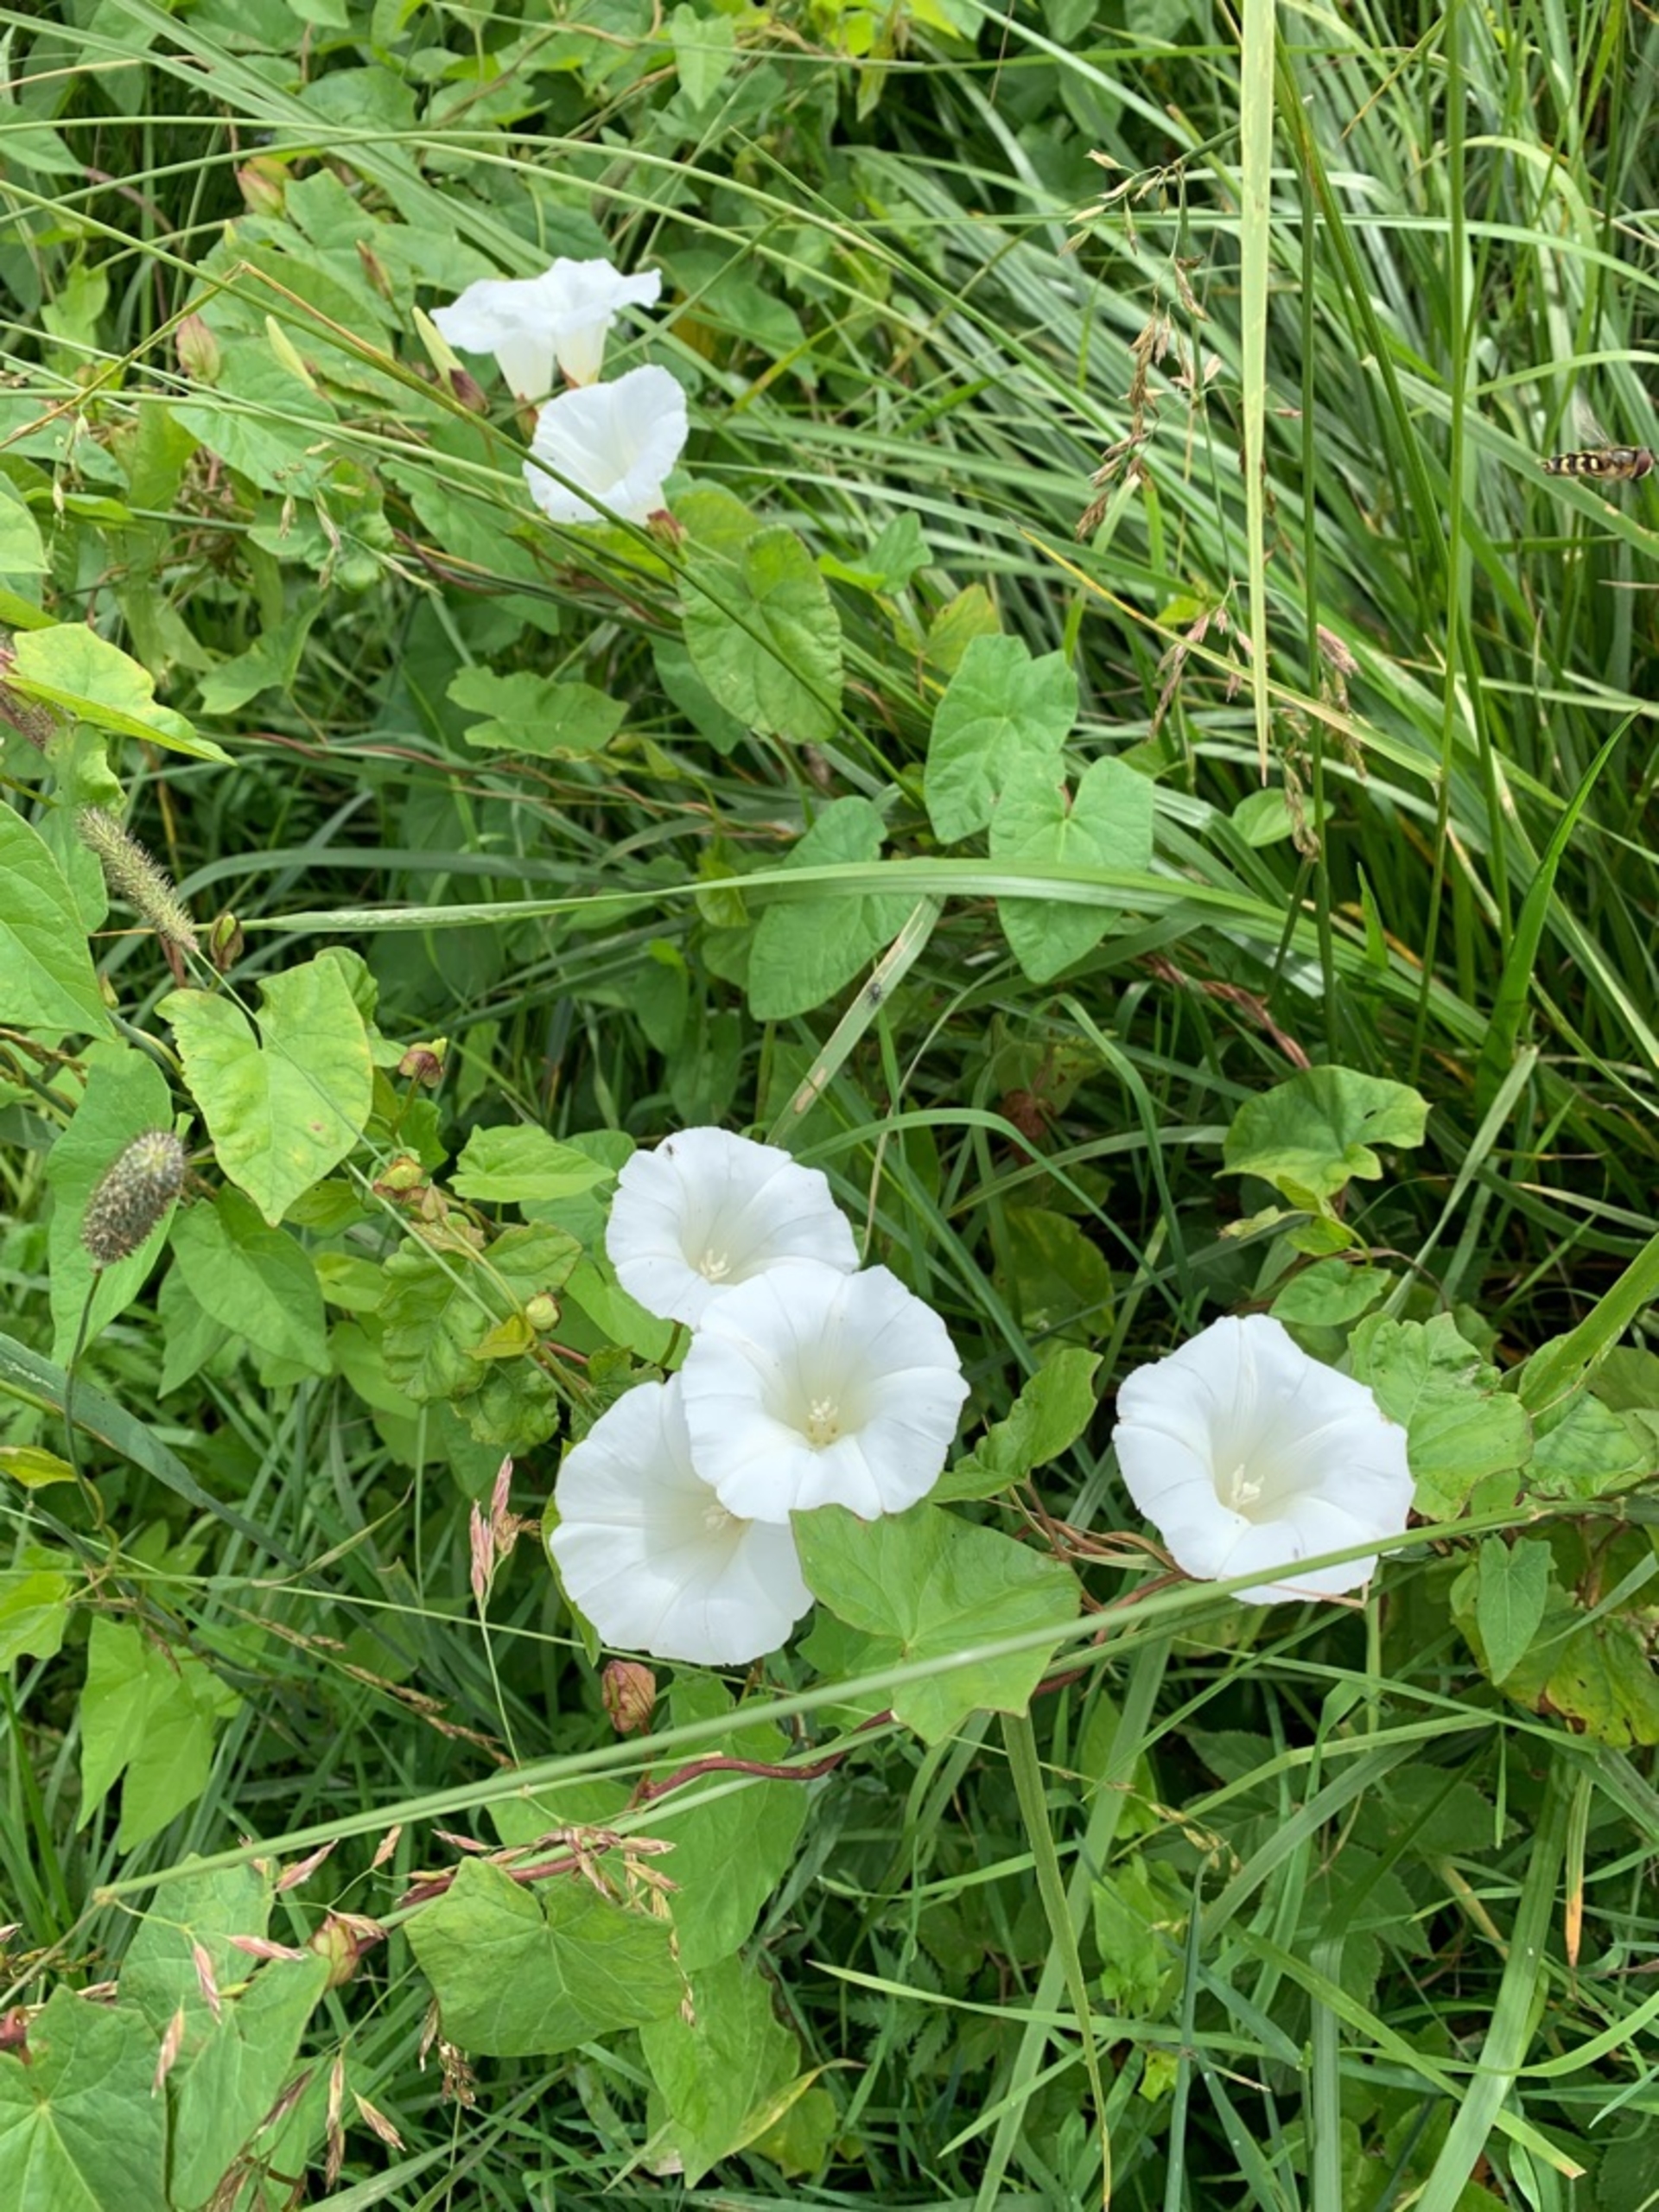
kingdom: Plantae
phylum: Tracheophyta
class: Magnoliopsida
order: Solanales
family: Convolvulaceae
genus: Calystegia
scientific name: Calystegia sepium
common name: Gærde-snerle
